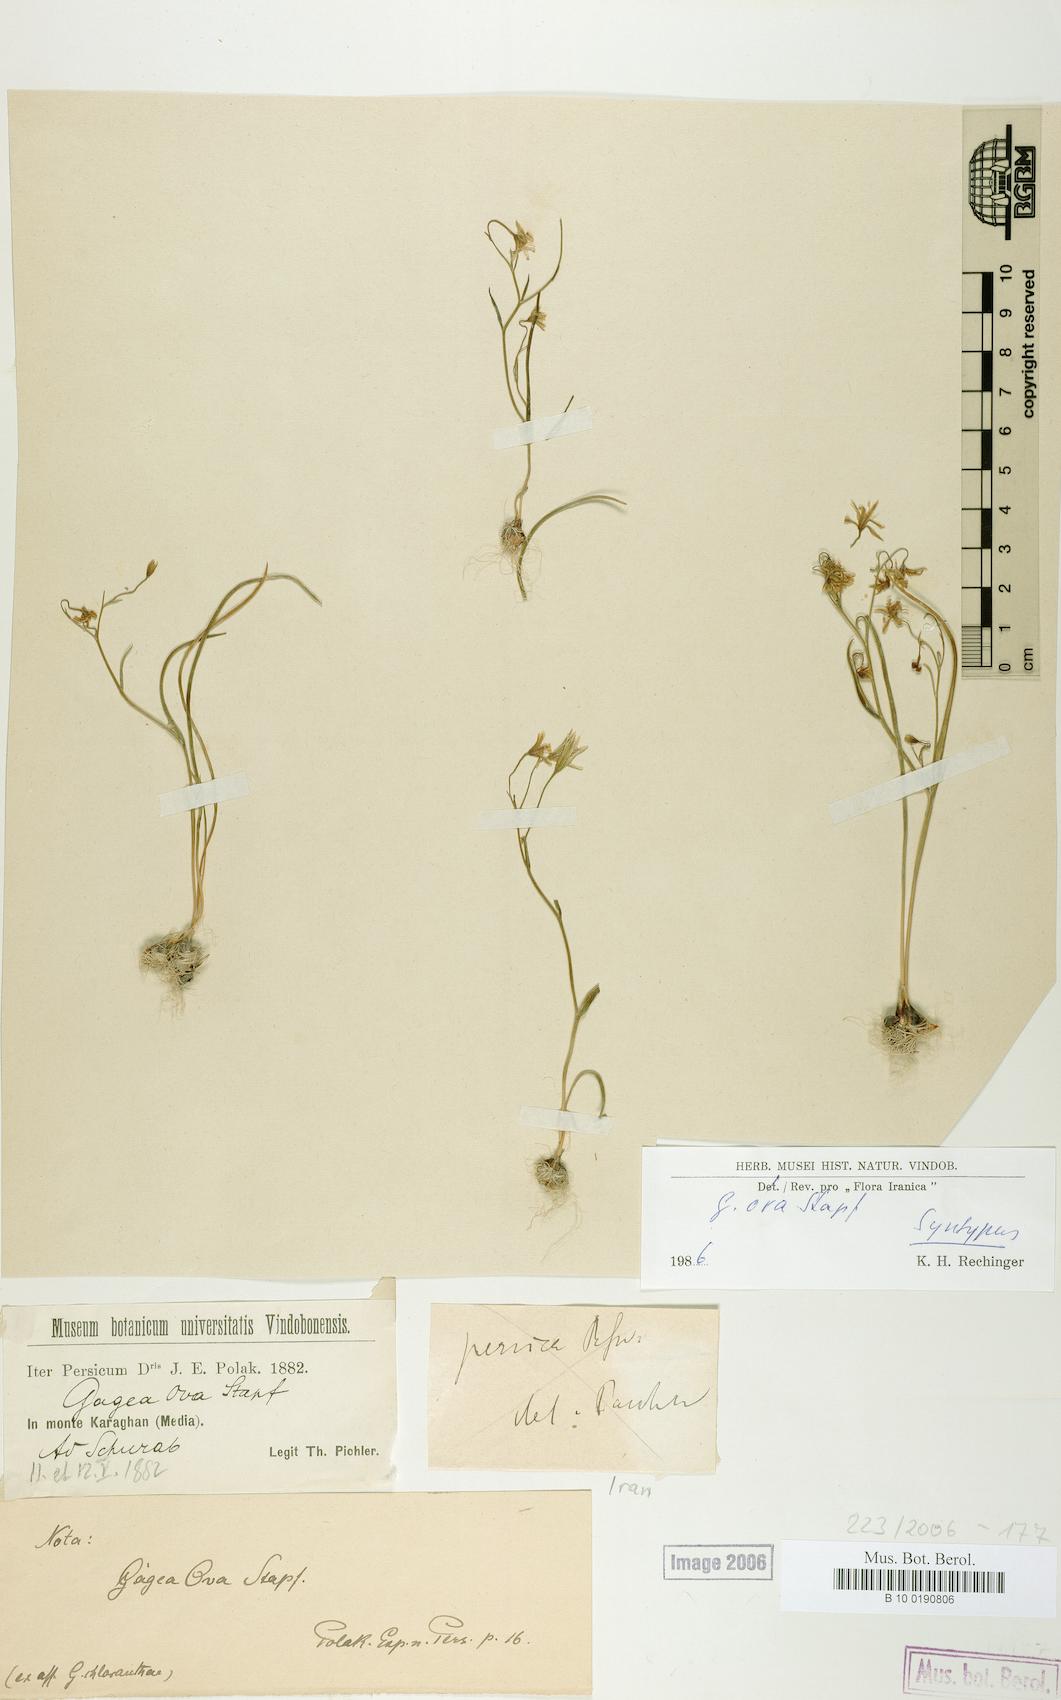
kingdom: Plantae
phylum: Tracheophyta
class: Liliopsida
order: Liliales
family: Liliaceae
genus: Gagea
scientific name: Gagea kunawurensis
